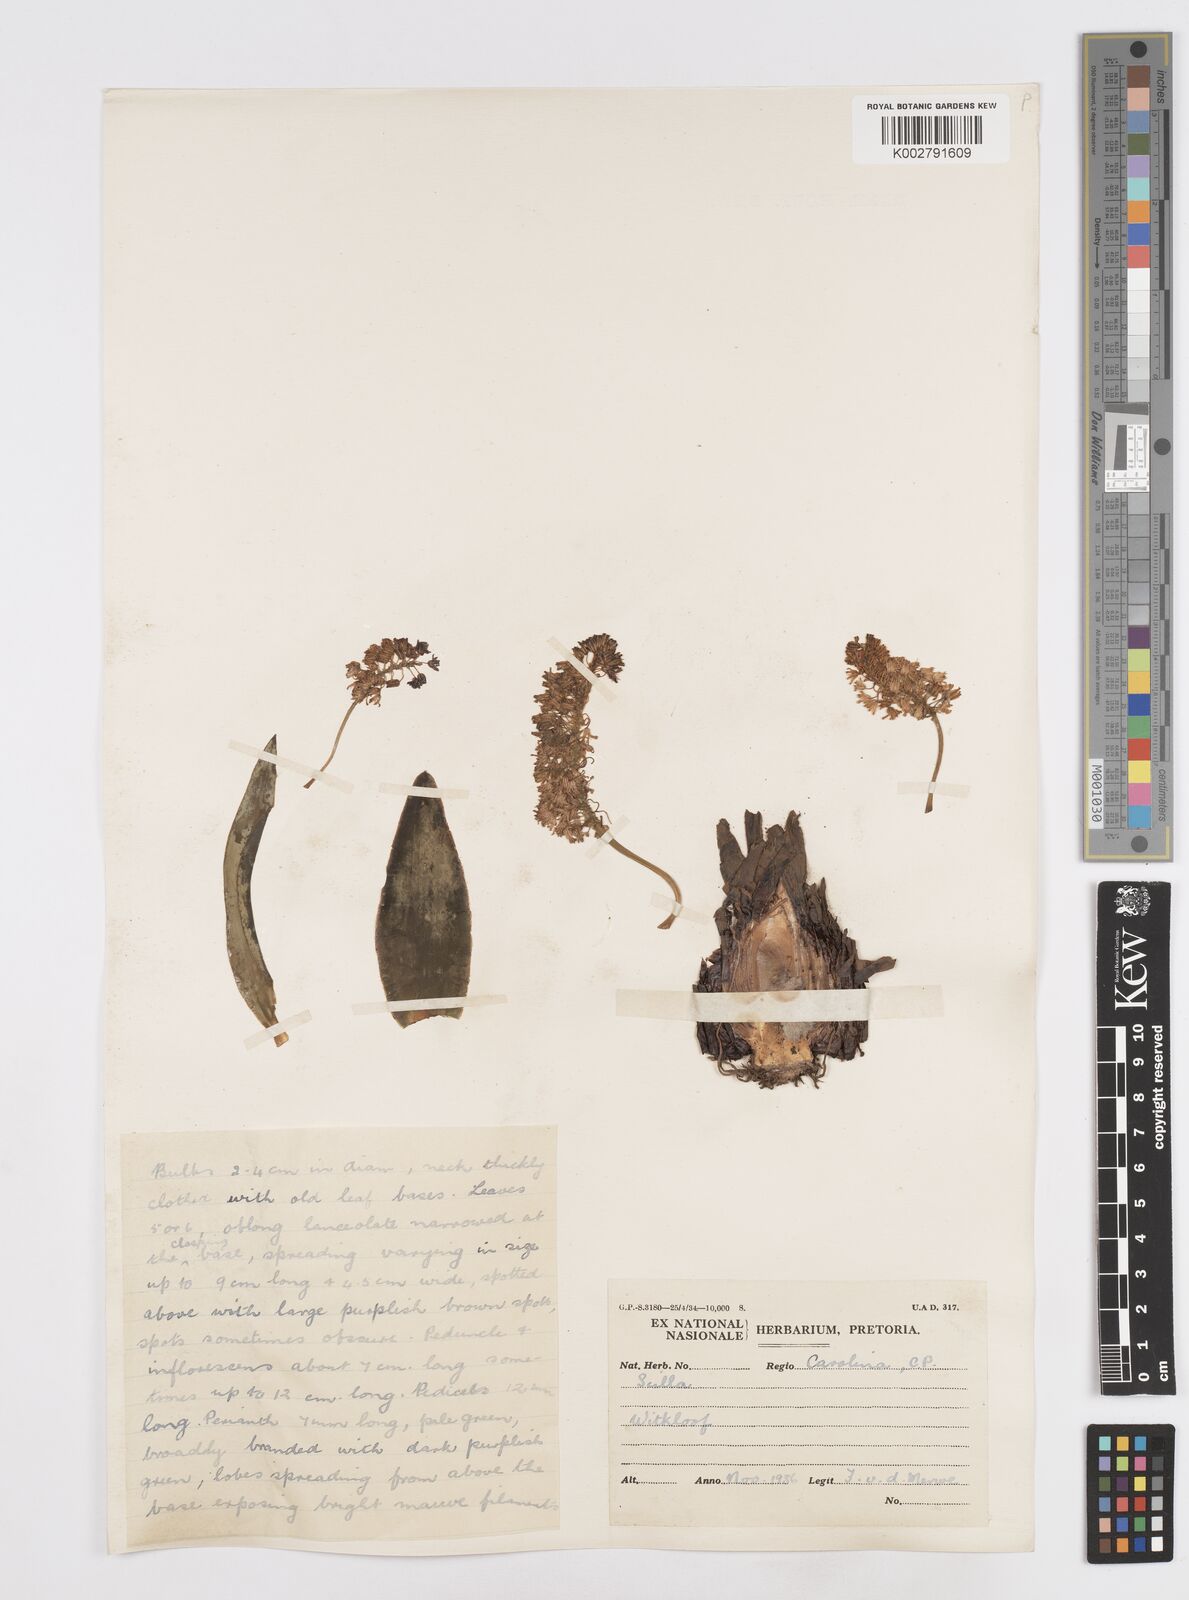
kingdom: Plantae
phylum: Tracheophyta
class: Liliopsida
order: Asparagales
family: Asparagaceae
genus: Scilla
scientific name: Scilla
